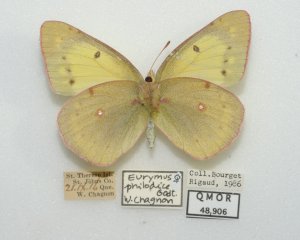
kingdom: Animalia
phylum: Arthropoda
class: Insecta
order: Lepidoptera
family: Pieridae
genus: Colias
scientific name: Colias philodice
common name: Clouded Sulphur
